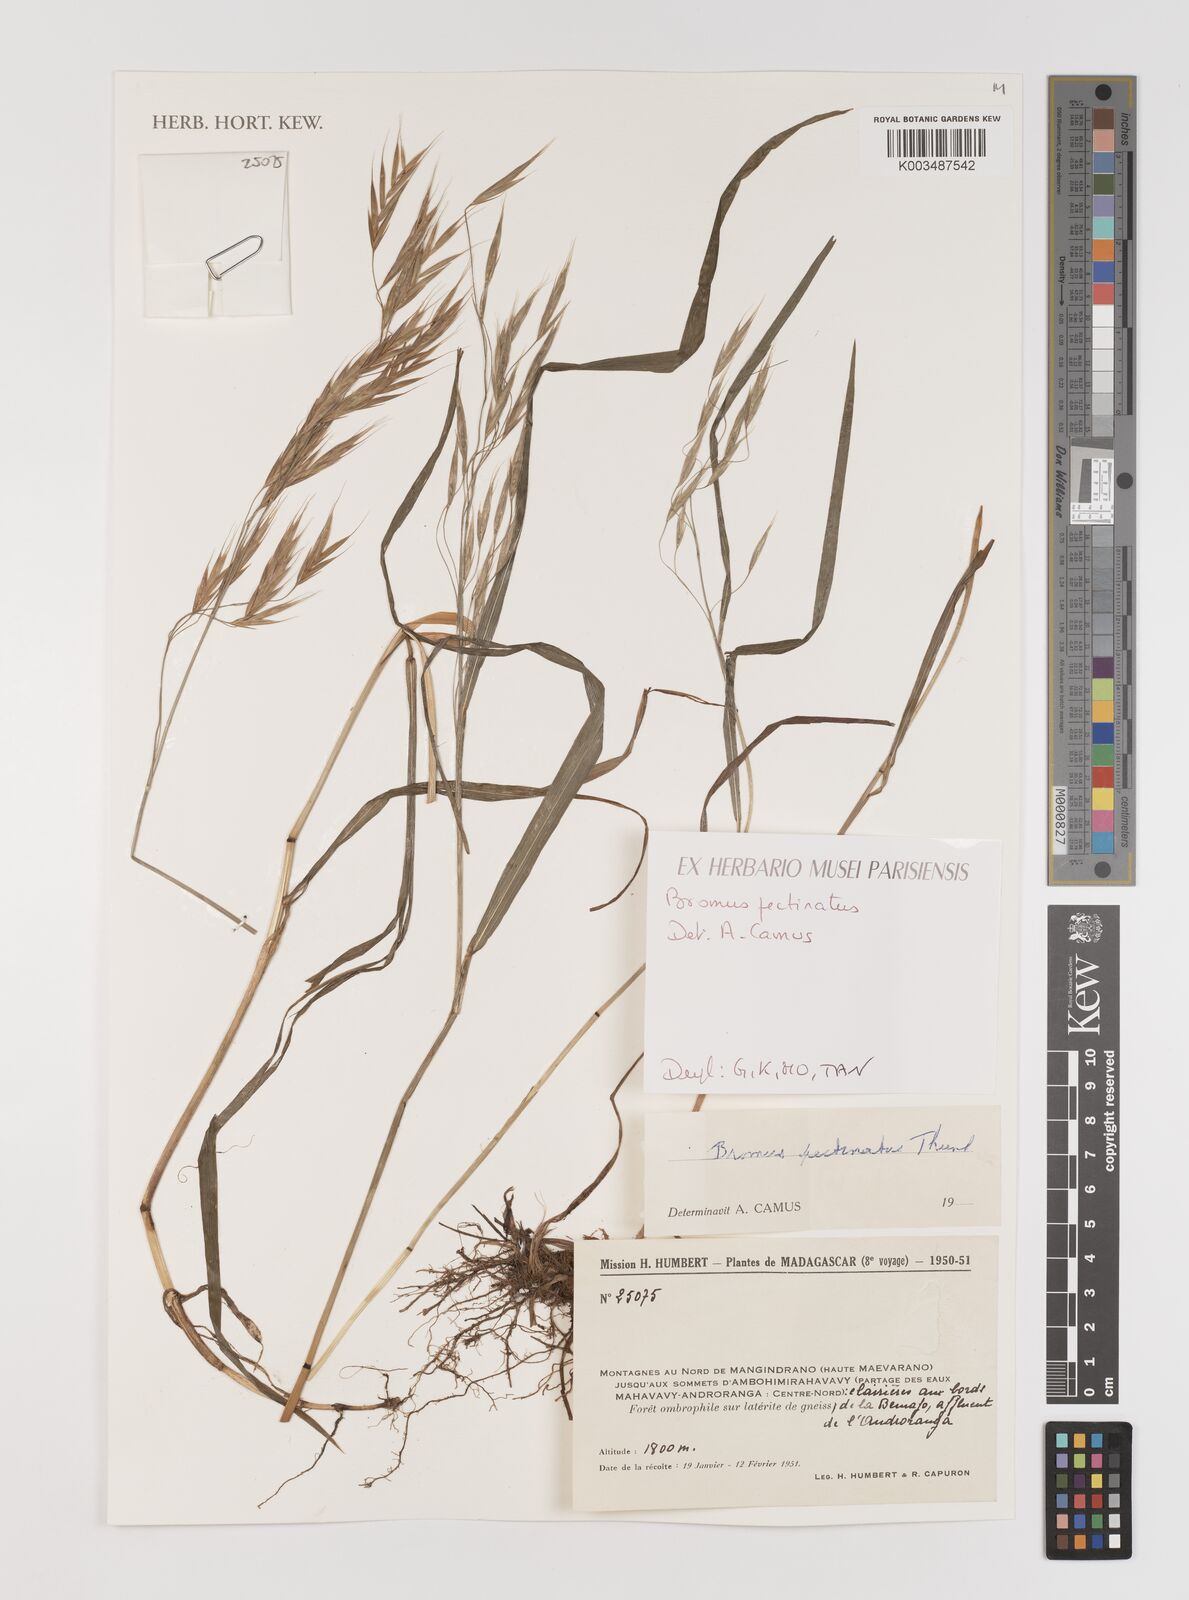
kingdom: Plantae
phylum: Tracheophyta
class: Liliopsida
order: Poales
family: Poaceae
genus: Bromus
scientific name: Bromus leptoclados
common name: Mountain bromegrass
